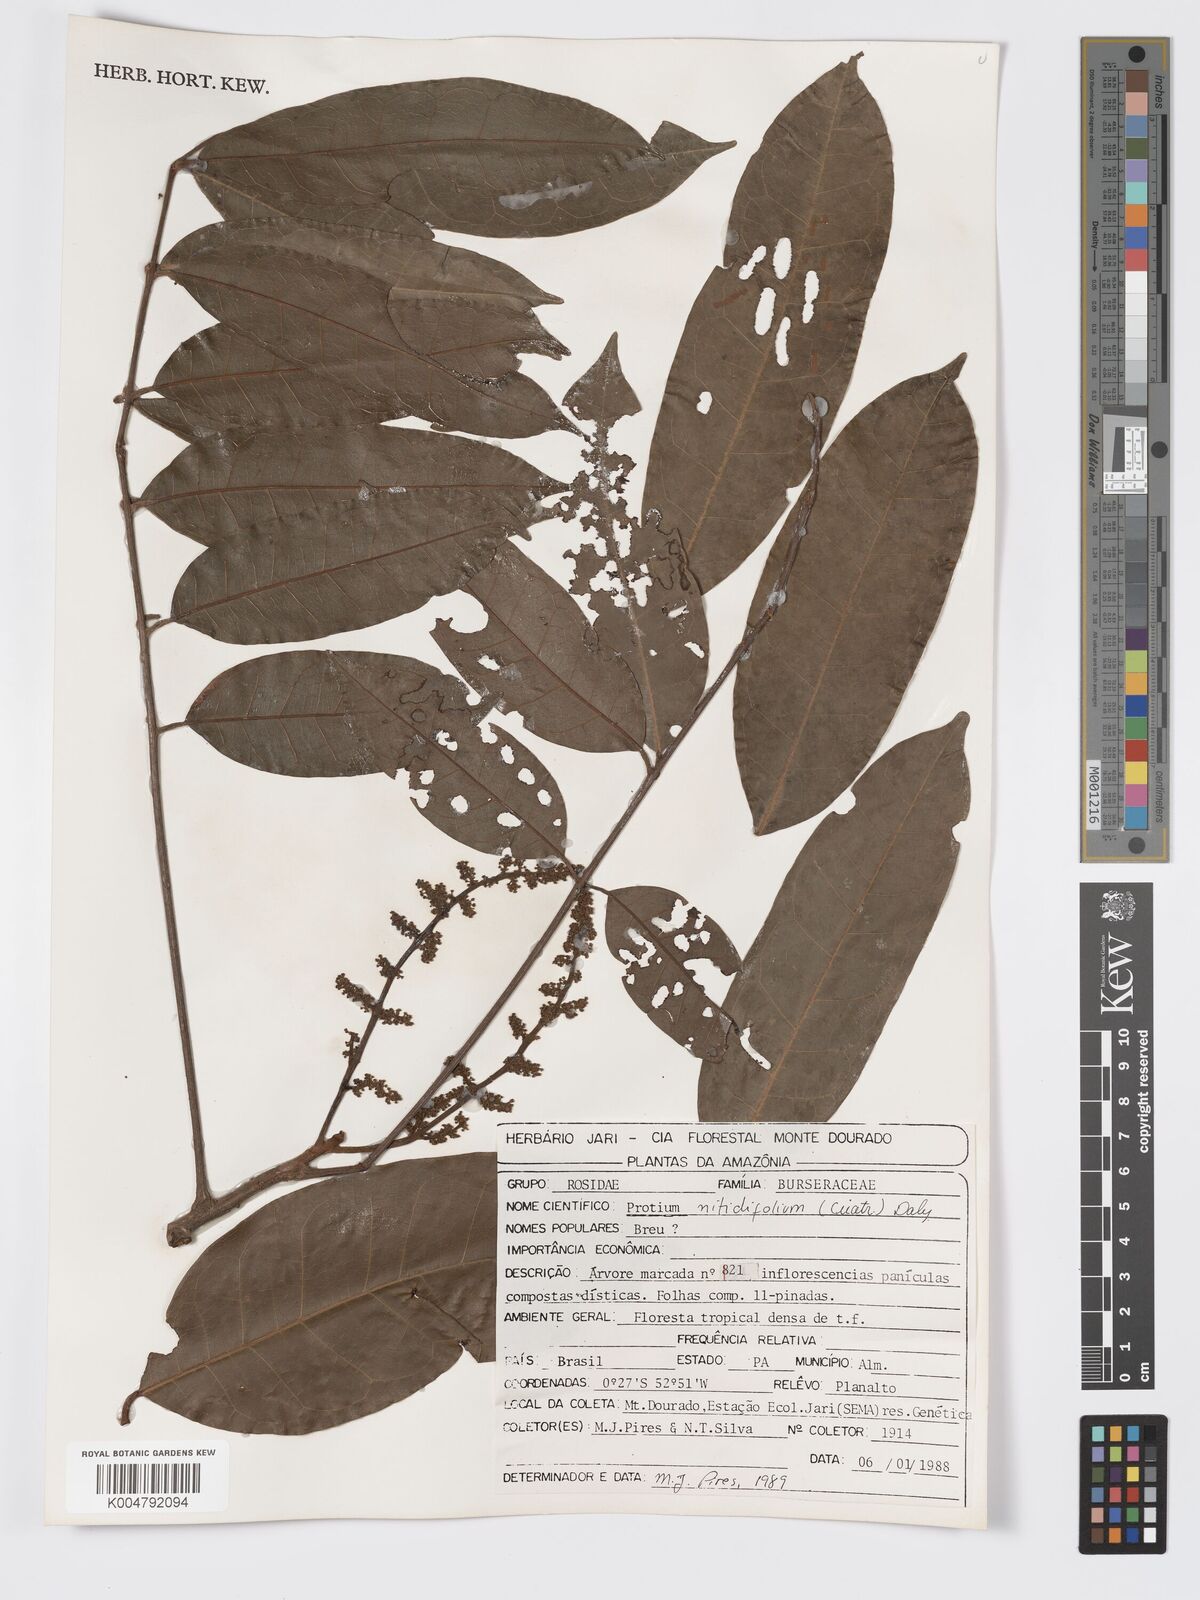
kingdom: Plantae
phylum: Tracheophyta
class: Magnoliopsida
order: Sapindales
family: Burseraceae
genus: Protium
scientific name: Protium nitidifolium
